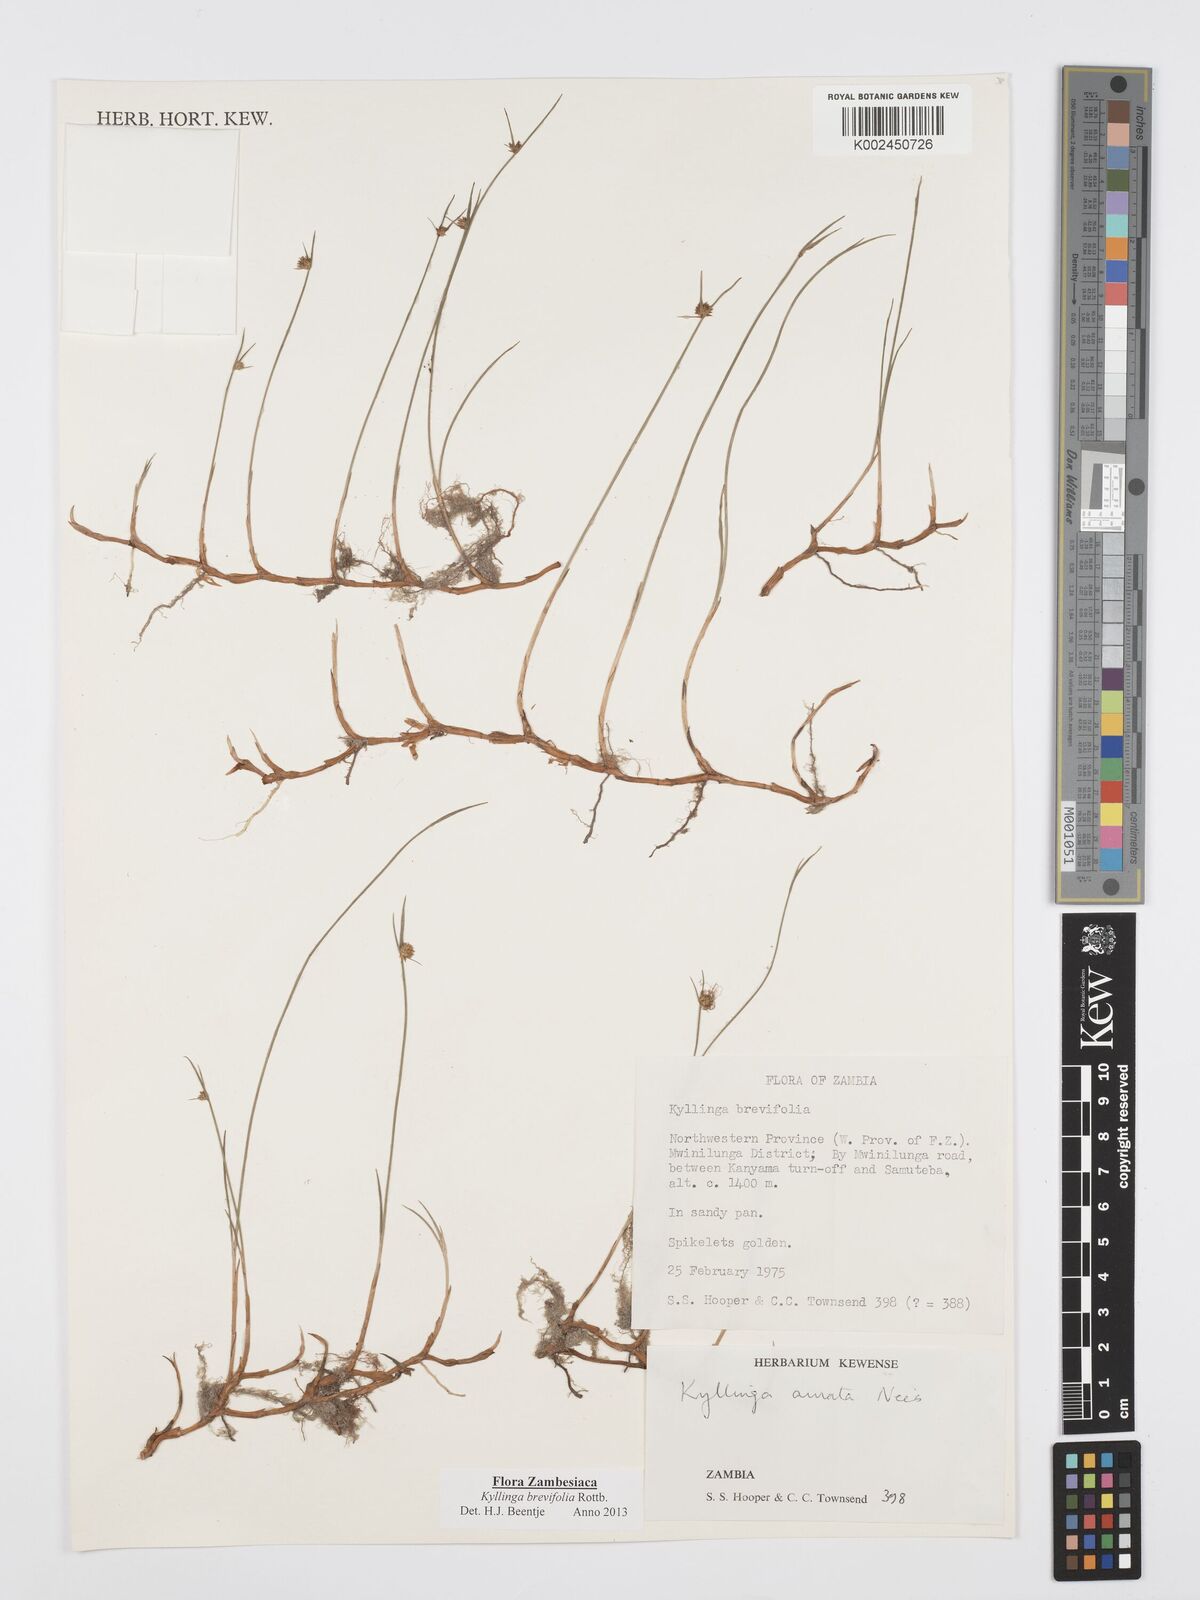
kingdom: Plantae
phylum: Tracheophyta
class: Liliopsida
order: Poales
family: Cyperaceae
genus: Cyperus
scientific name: Cyperus brevifolius
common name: Globe kyllinga
